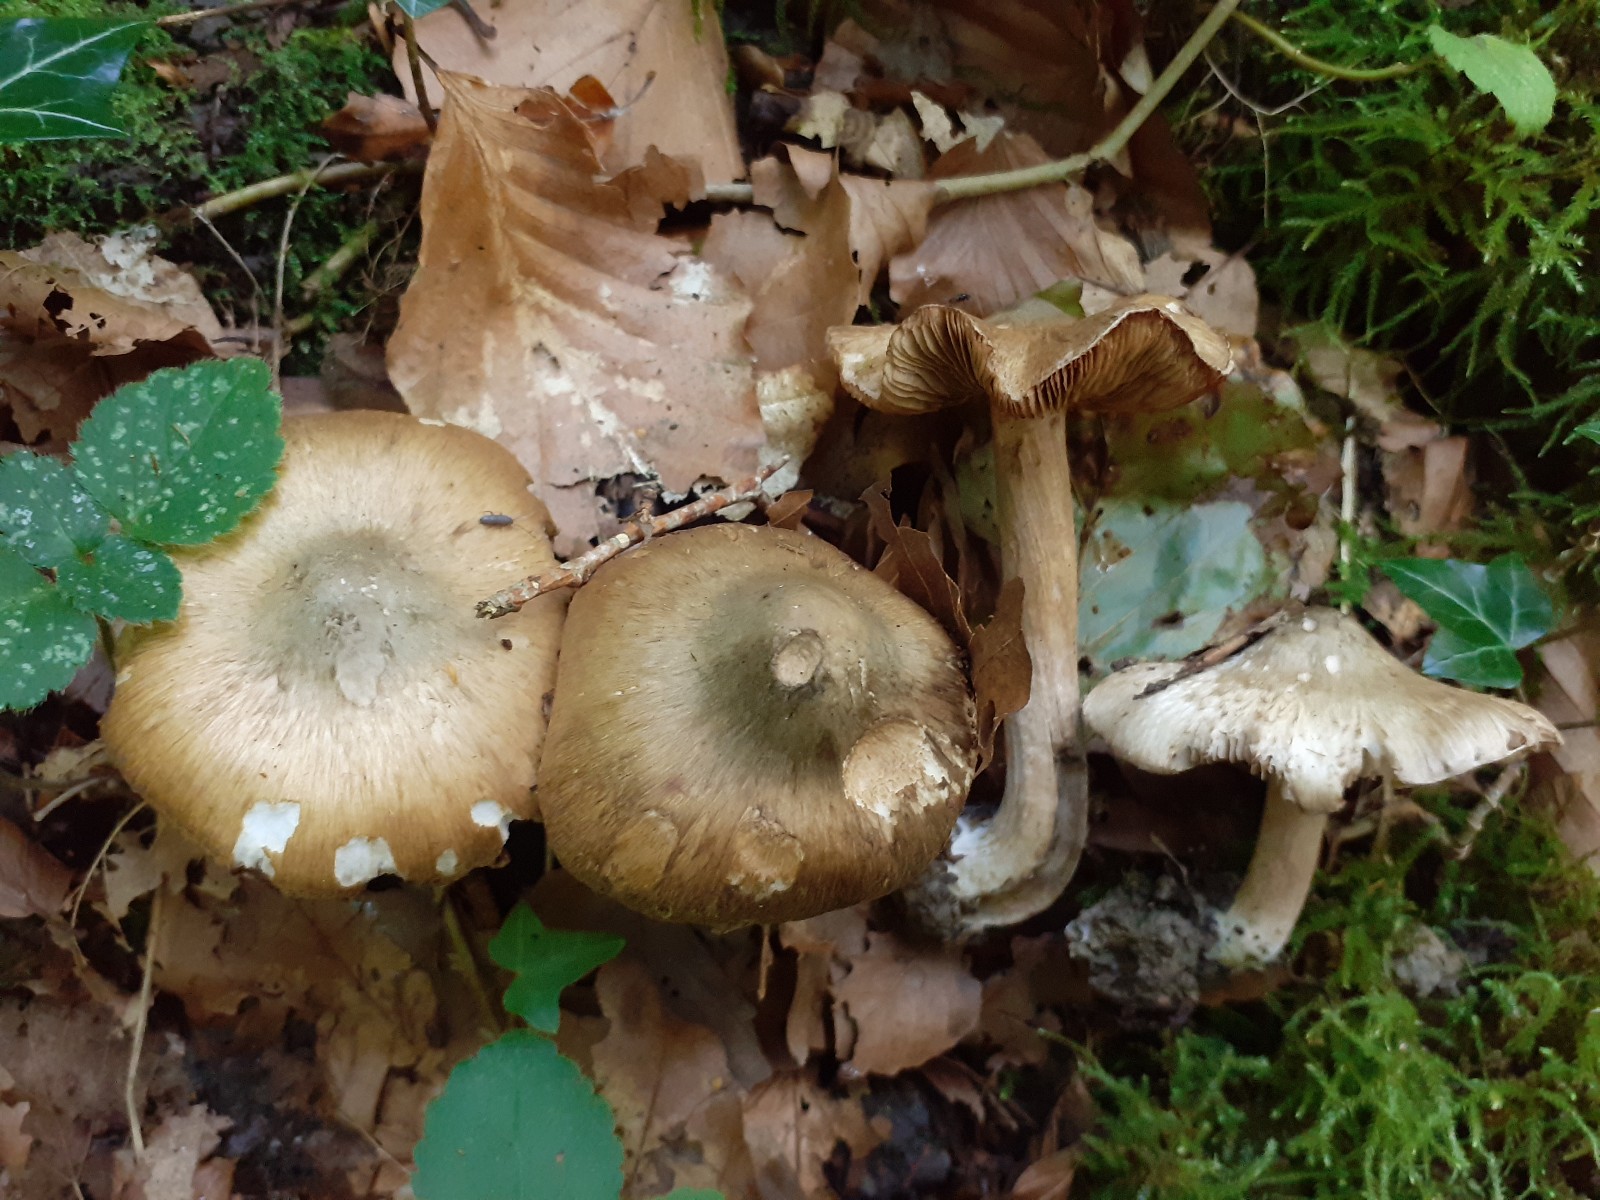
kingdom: Fungi
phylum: Basidiomycota
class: Agaricomycetes
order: Agaricales
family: Inocybaceae
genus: Inocybe
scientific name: Inocybe corydalina
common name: grønpuklet trævlhat
